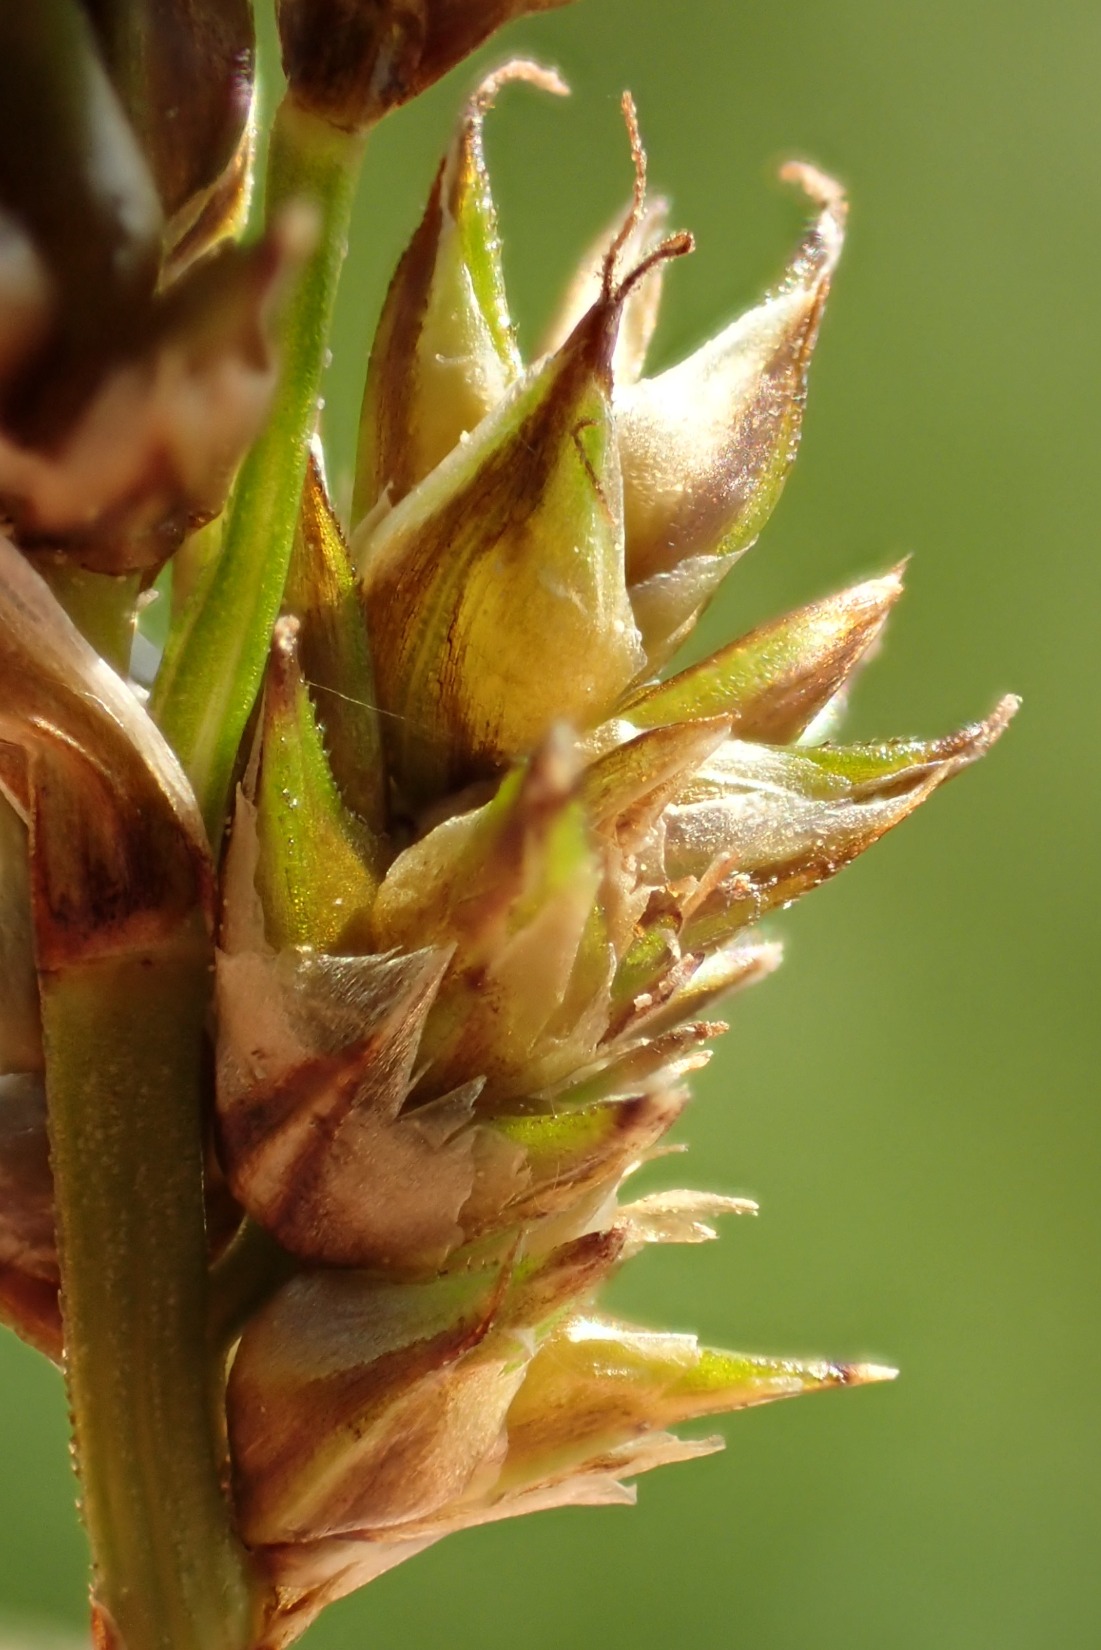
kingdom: Plantae
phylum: Tracheophyta
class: Liliopsida
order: Poales
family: Cyperaceae
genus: Carex
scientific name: Carex diandra
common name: Trindstænglet star
